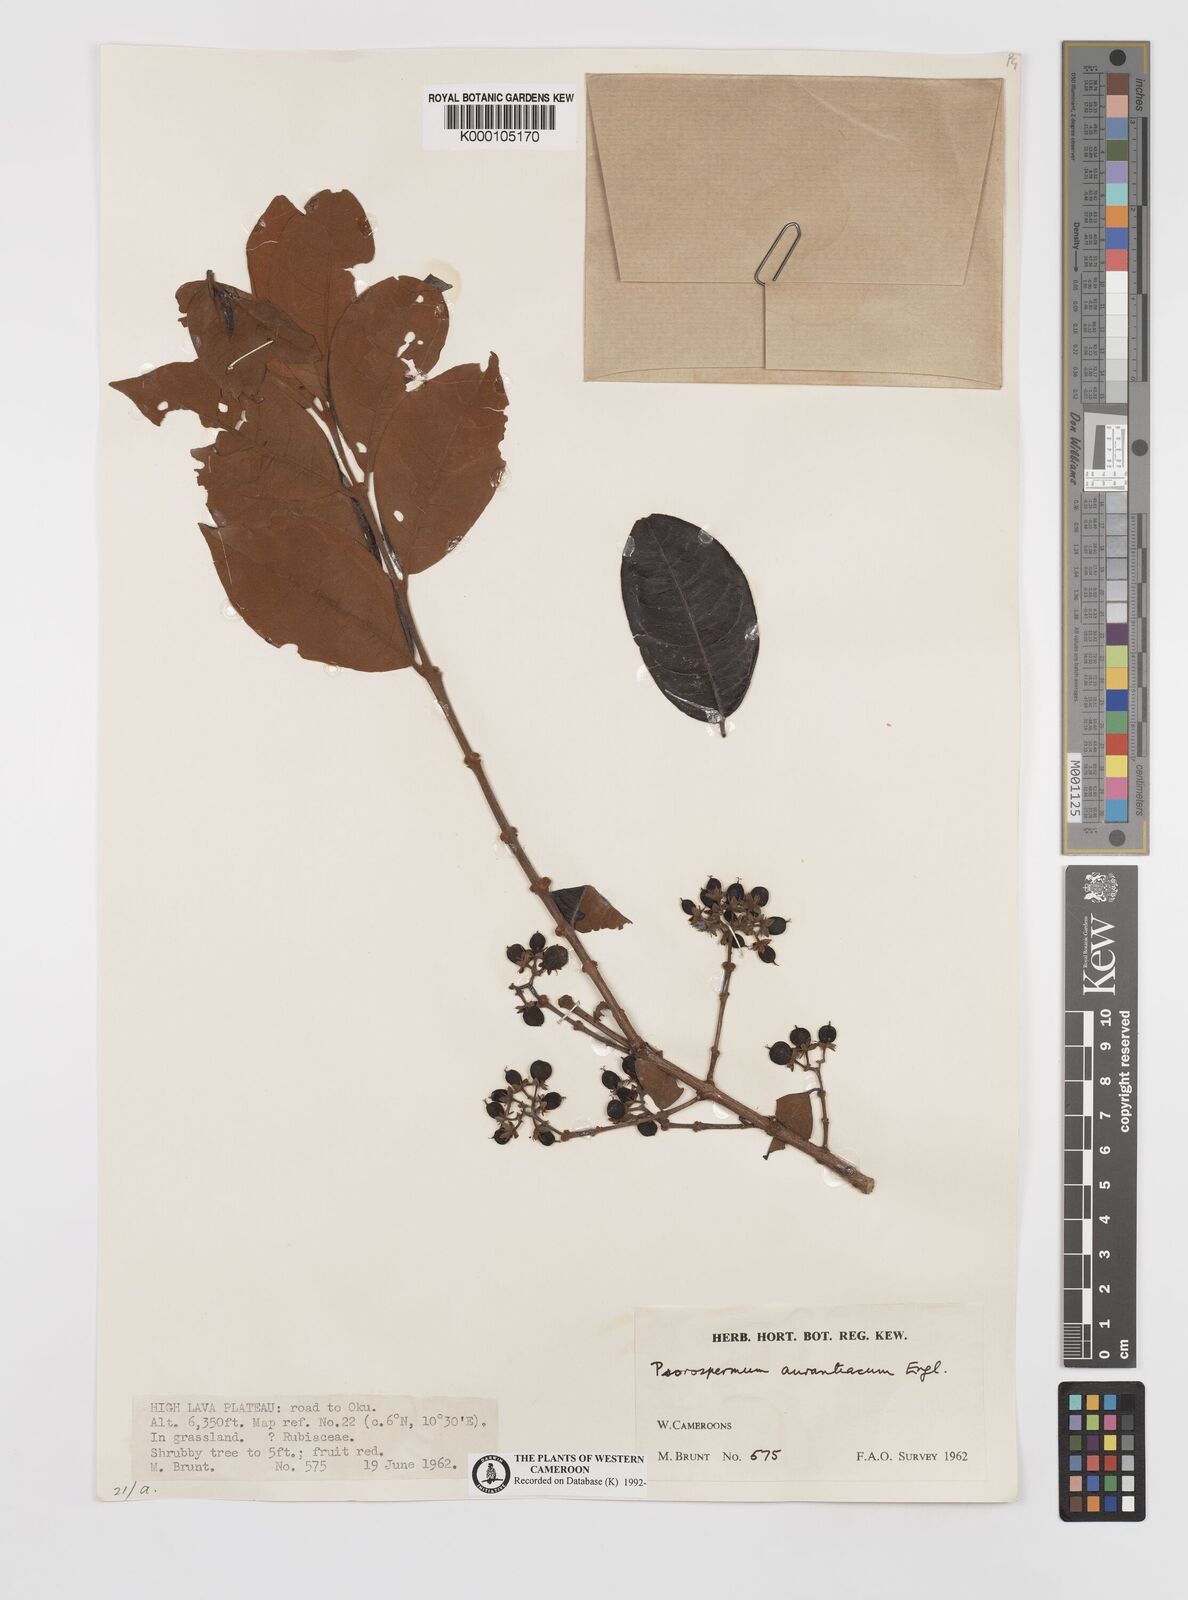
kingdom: Plantae
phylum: Tracheophyta
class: Magnoliopsida
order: Malpighiales
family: Hypericaceae
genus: Psorospermum
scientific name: Psorospermum aurantiacum
